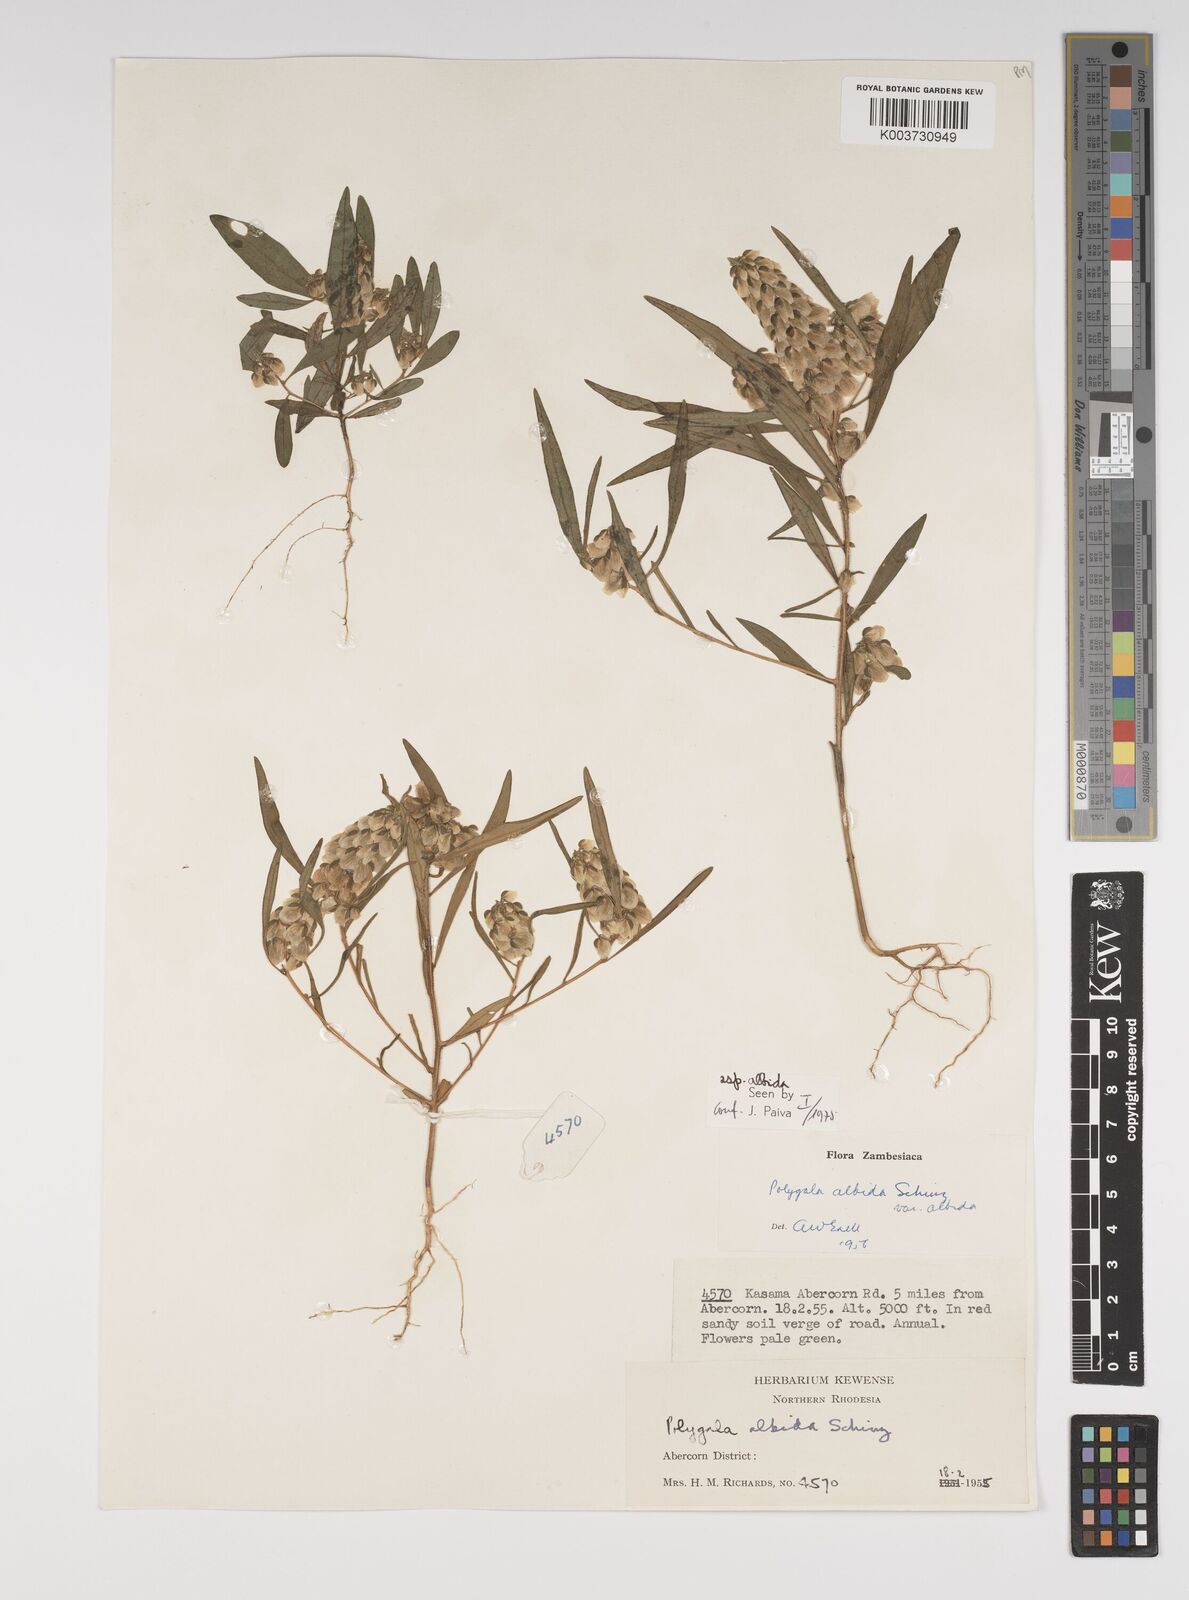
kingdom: Plantae
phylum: Tracheophyta
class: Magnoliopsida
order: Fabales
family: Polygalaceae
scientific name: Polygalaceae
